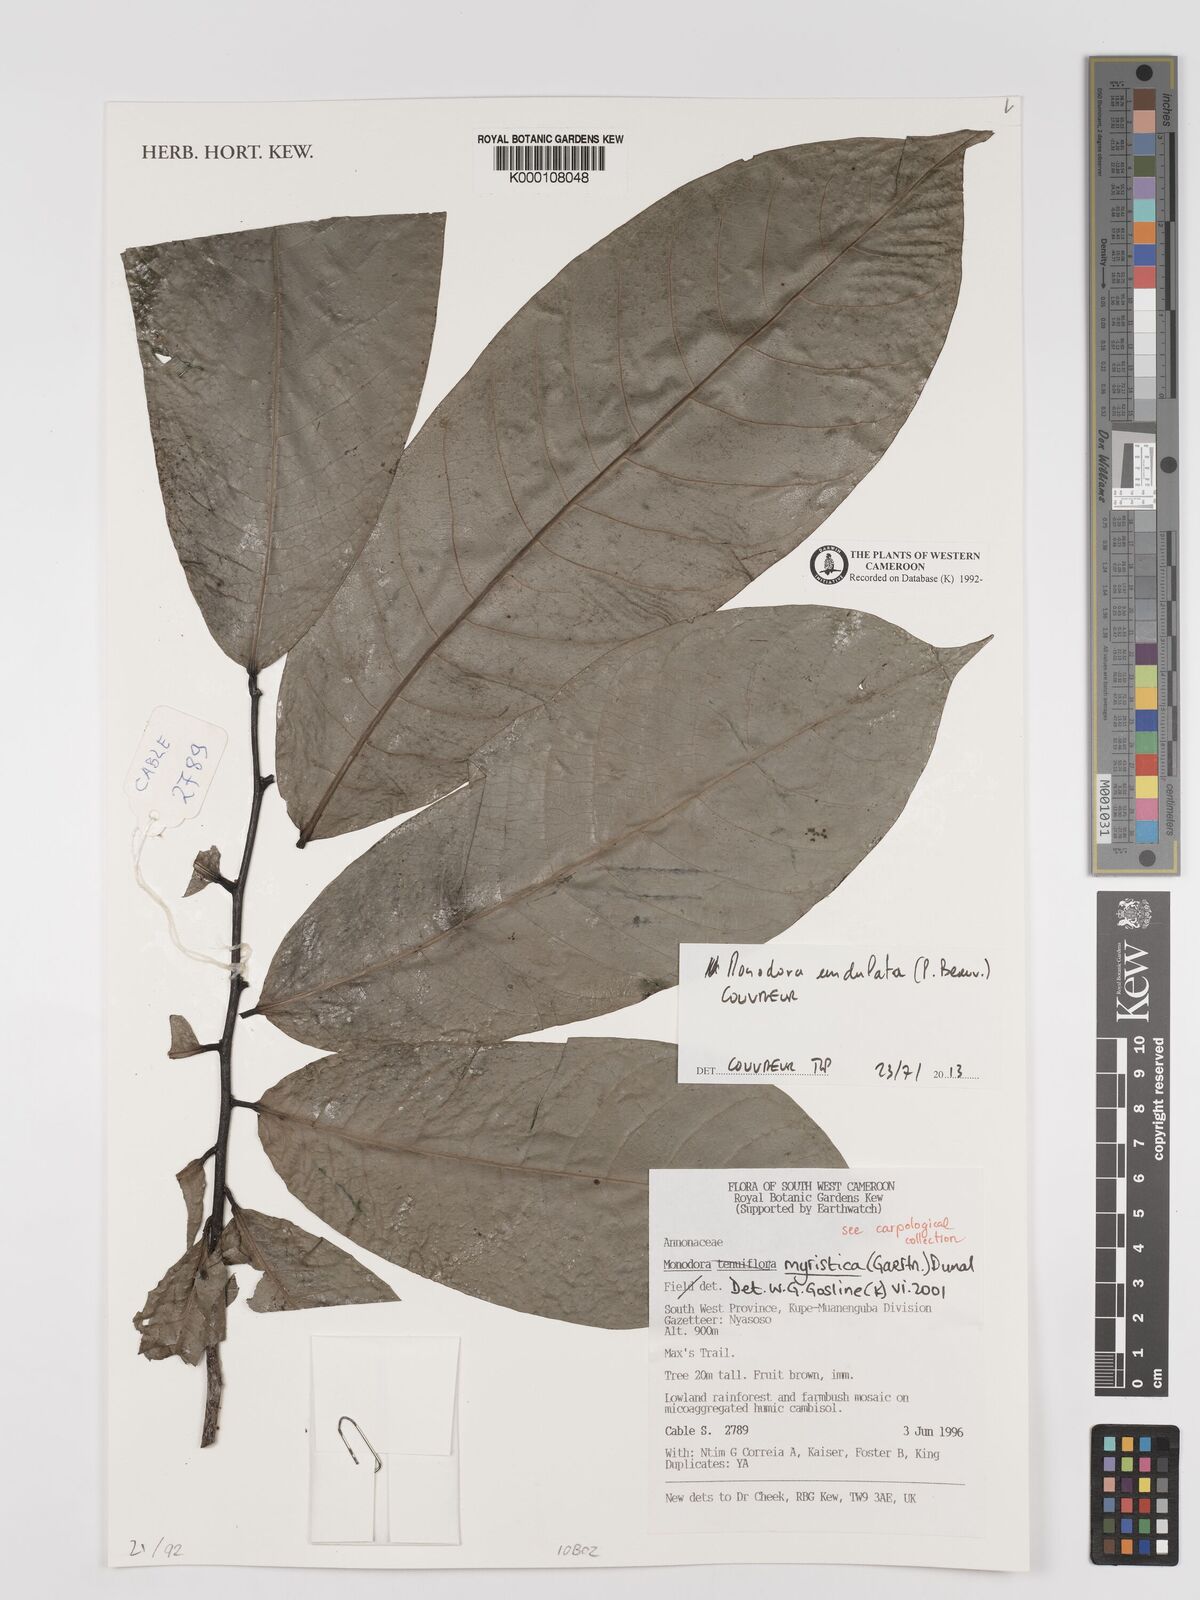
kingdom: Plantae
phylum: Tracheophyta
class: Magnoliopsida
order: Magnoliales
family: Annonaceae
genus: Monodora
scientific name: Monodora myristica
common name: African nutmeg
